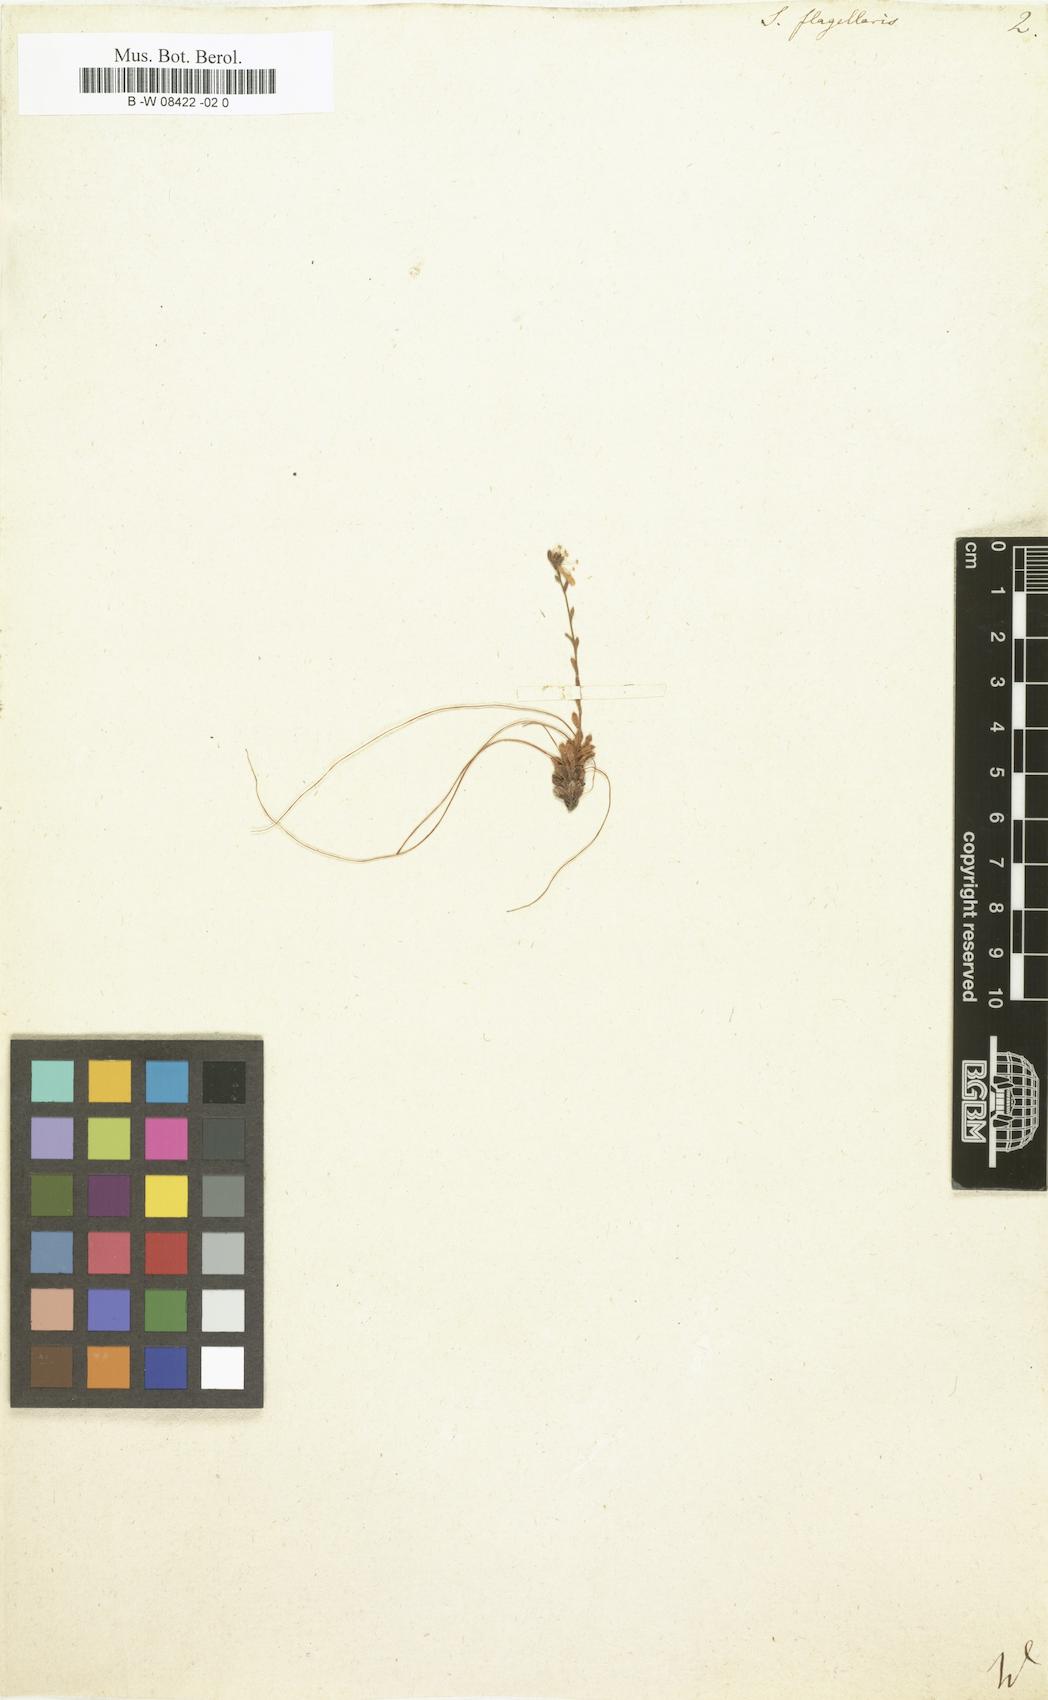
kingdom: Plantae
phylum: Tracheophyta
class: Magnoliopsida
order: Saxifragales
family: Saxifragaceae
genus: Saxifraga
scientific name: Saxifraga flagellaris
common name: Spider saxifrage
